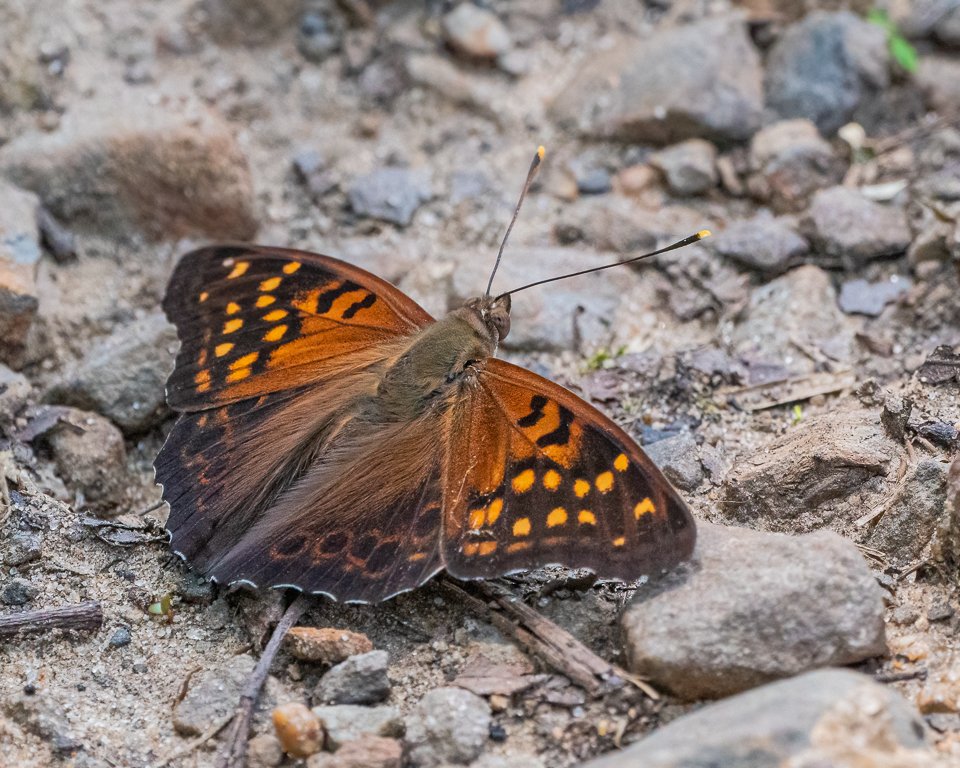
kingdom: Animalia
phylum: Arthropoda
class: Insecta
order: Lepidoptera
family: Nymphalidae
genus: Asterocampa
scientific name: Asterocampa clyton
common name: Tawny Emperor
